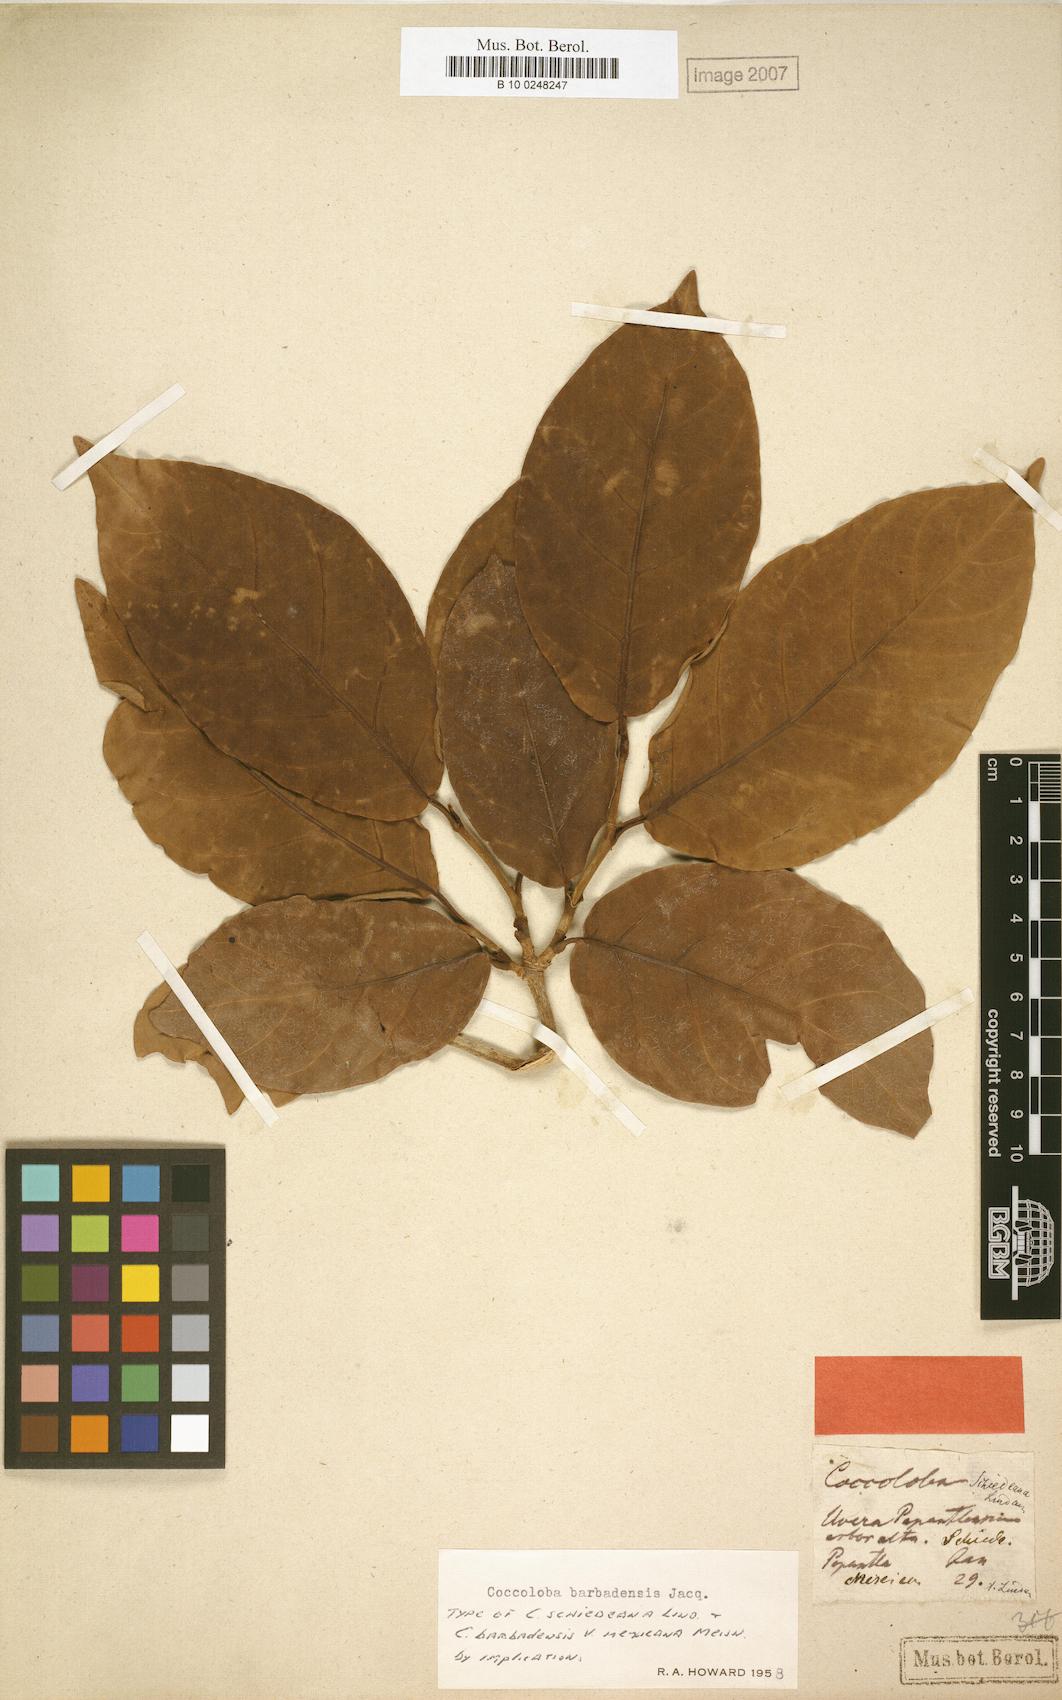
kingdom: Plantae
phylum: Tracheophyta
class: Magnoliopsida
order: Caryophyllales
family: Polygonaceae
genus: Coccoloba
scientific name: Coccoloba barbadensis
